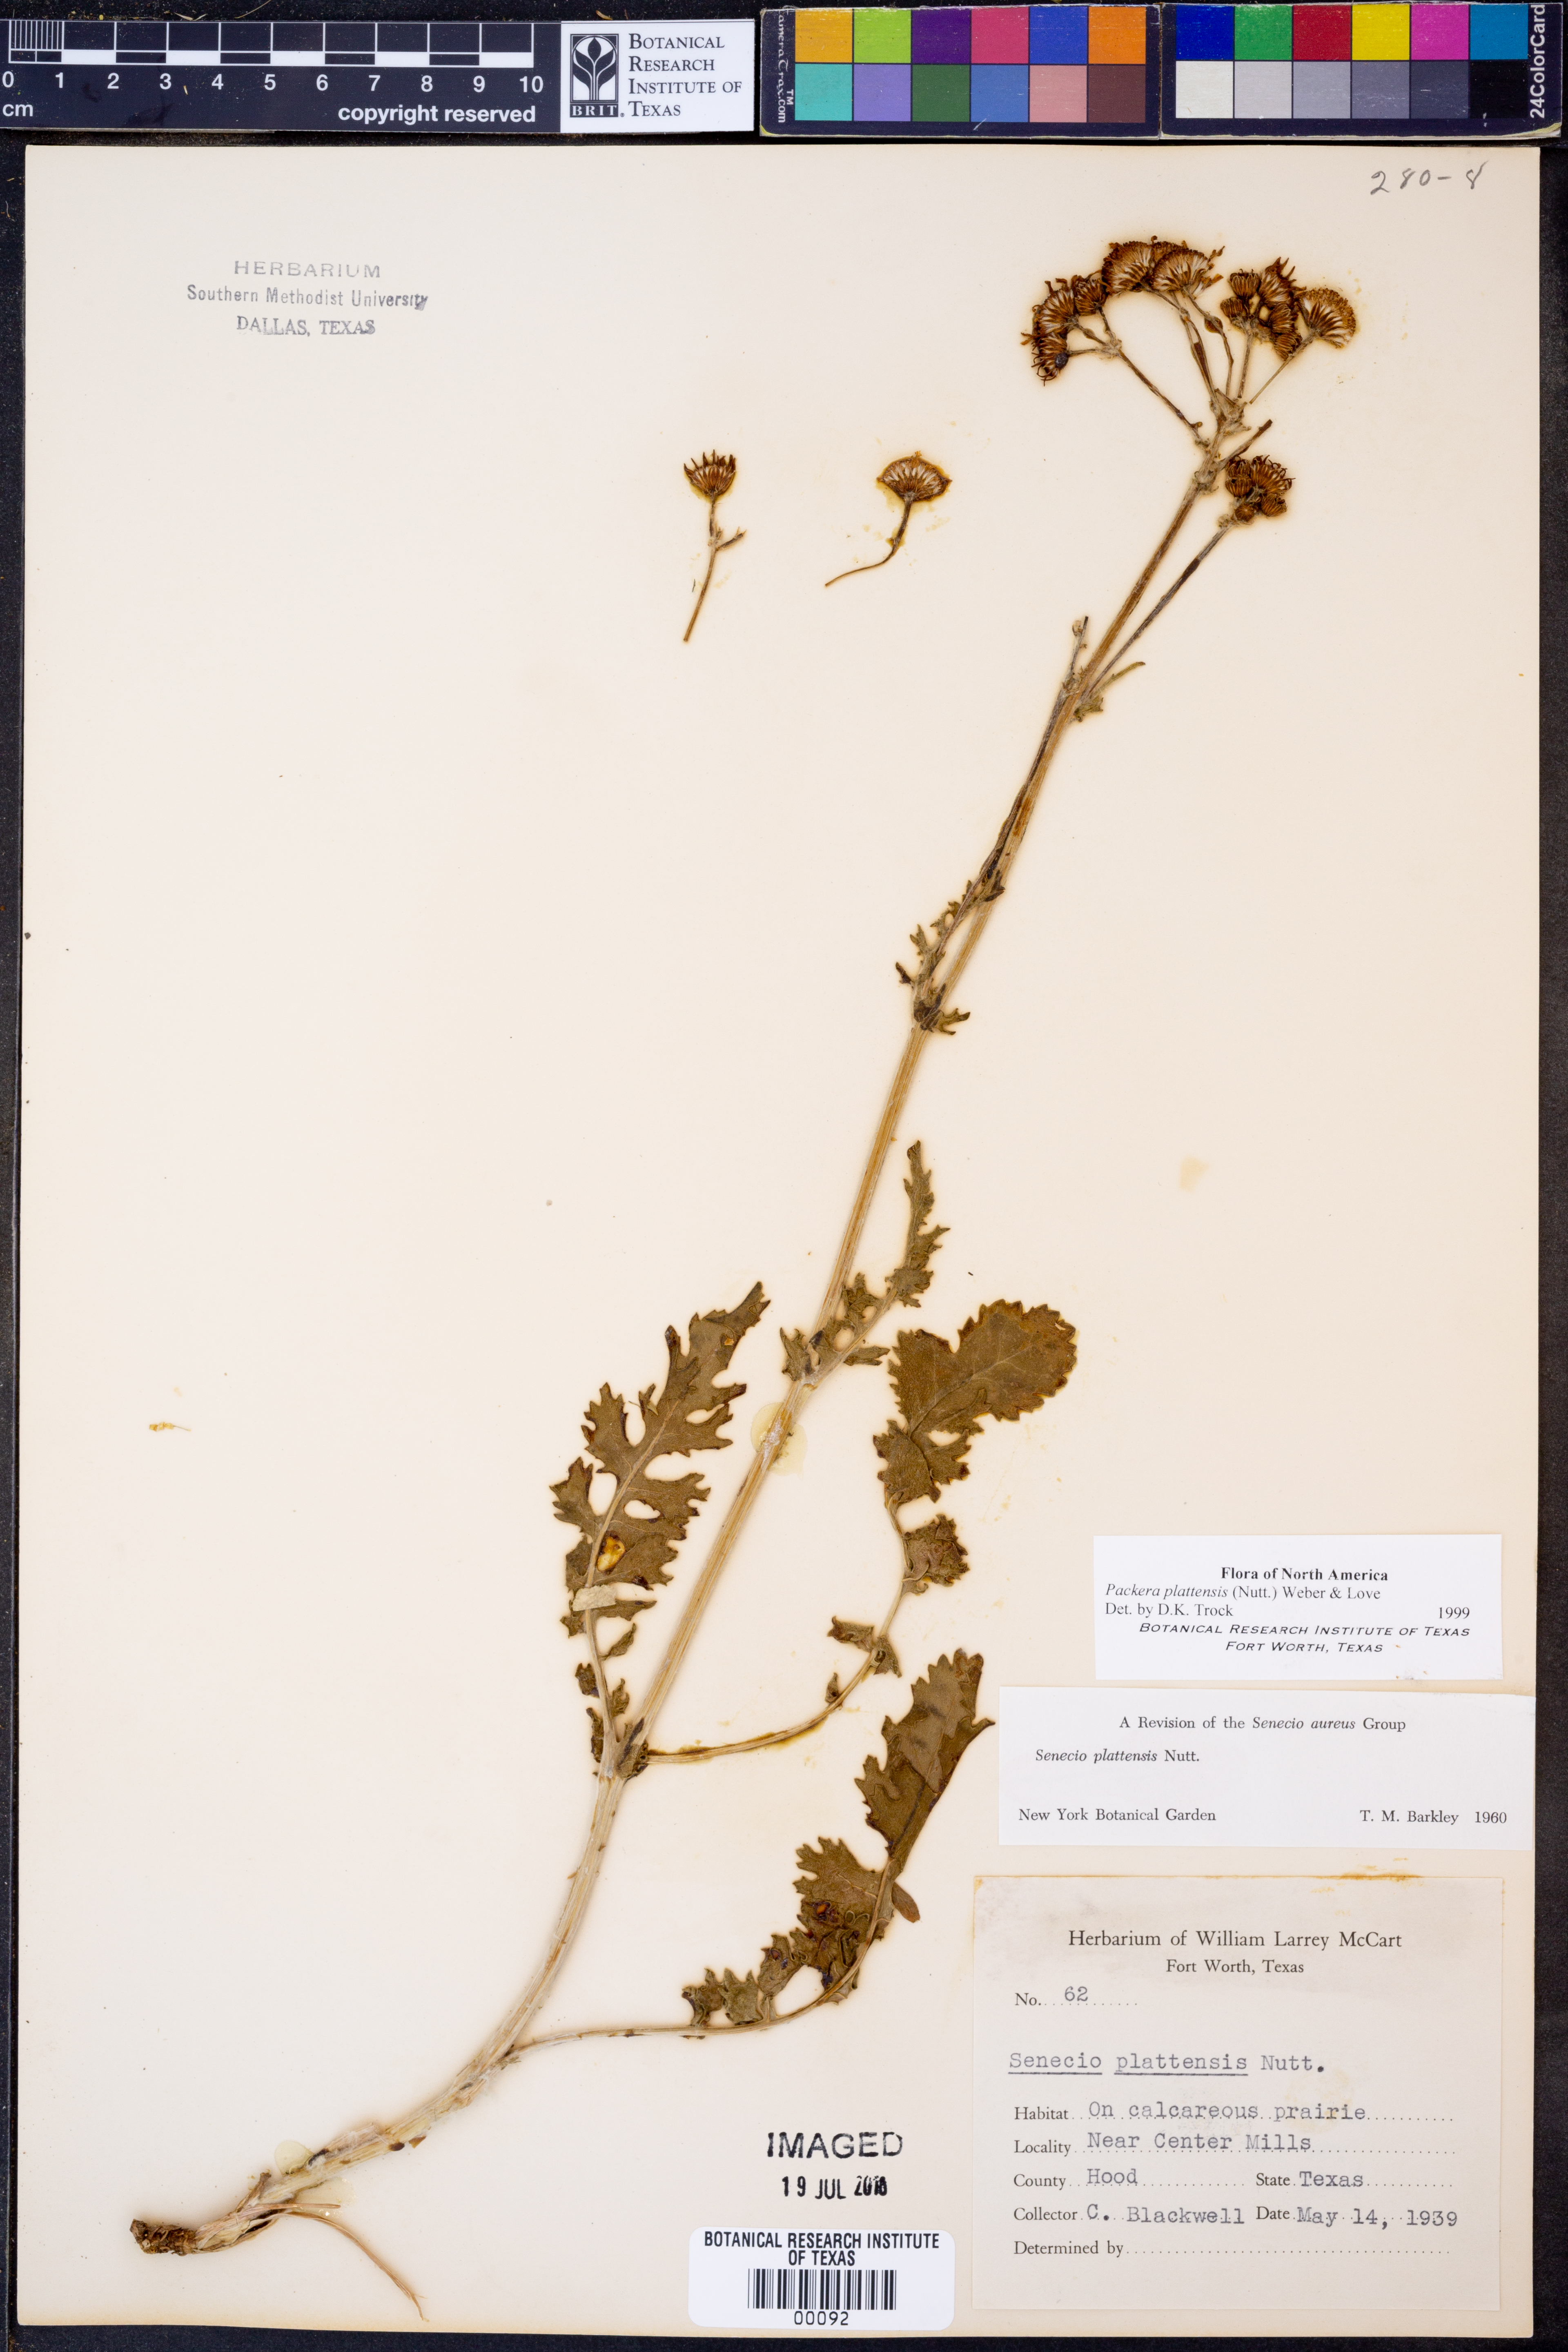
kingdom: Plantae
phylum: Tracheophyta
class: Magnoliopsida
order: Asterales
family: Asteraceae
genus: Packera
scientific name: Packera plattensis
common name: Prairie groundsel
